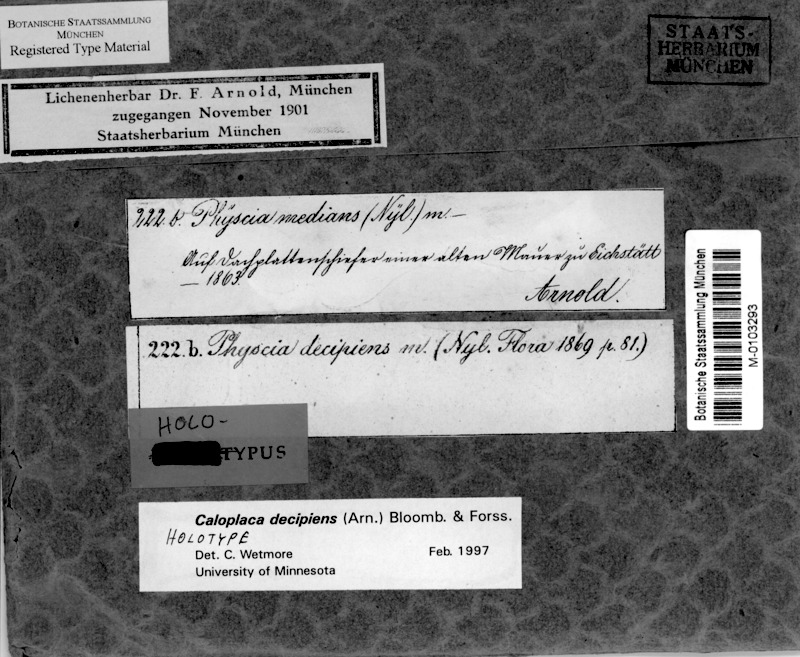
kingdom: Fungi
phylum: Ascomycota
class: Lecanoromycetes
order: Teloschistales
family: Teloschistaceae
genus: Calogaya
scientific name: Calogaya decipiens
